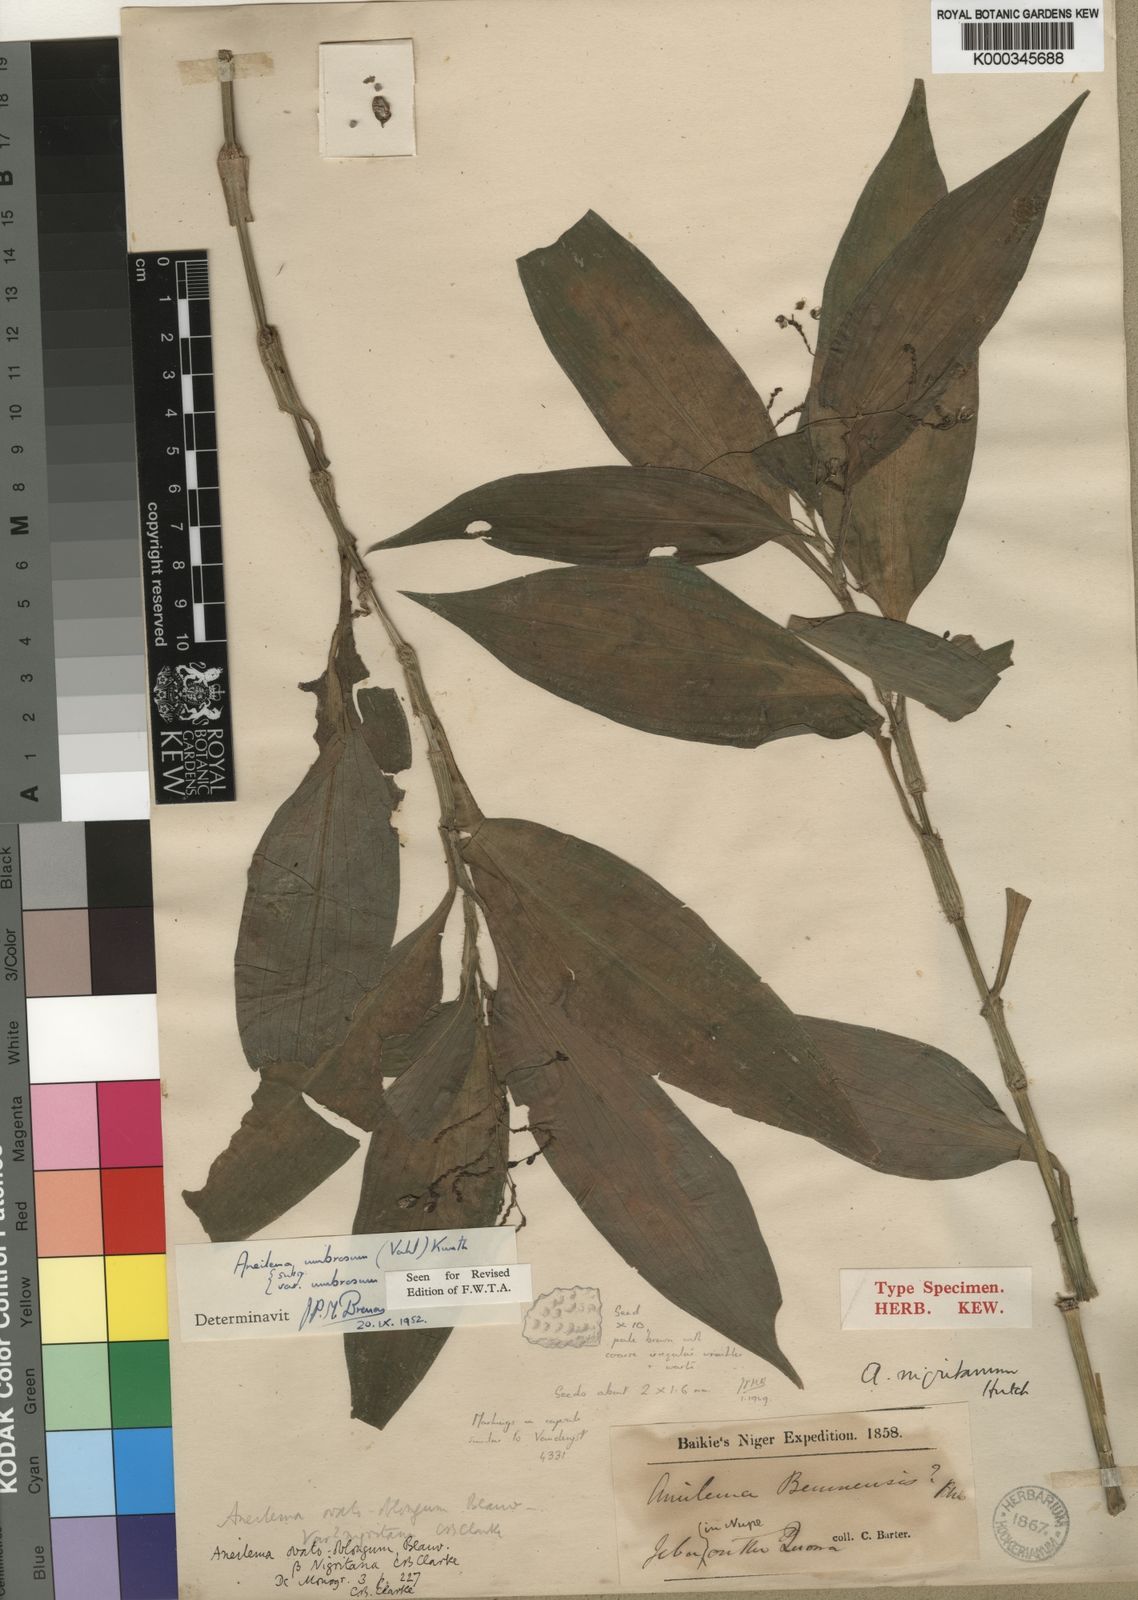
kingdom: Plantae
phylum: Tracheophyta
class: Liliopsida
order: Commelinales
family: Commelinaceae
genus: Aneilema
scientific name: Aneilema umbrosum
